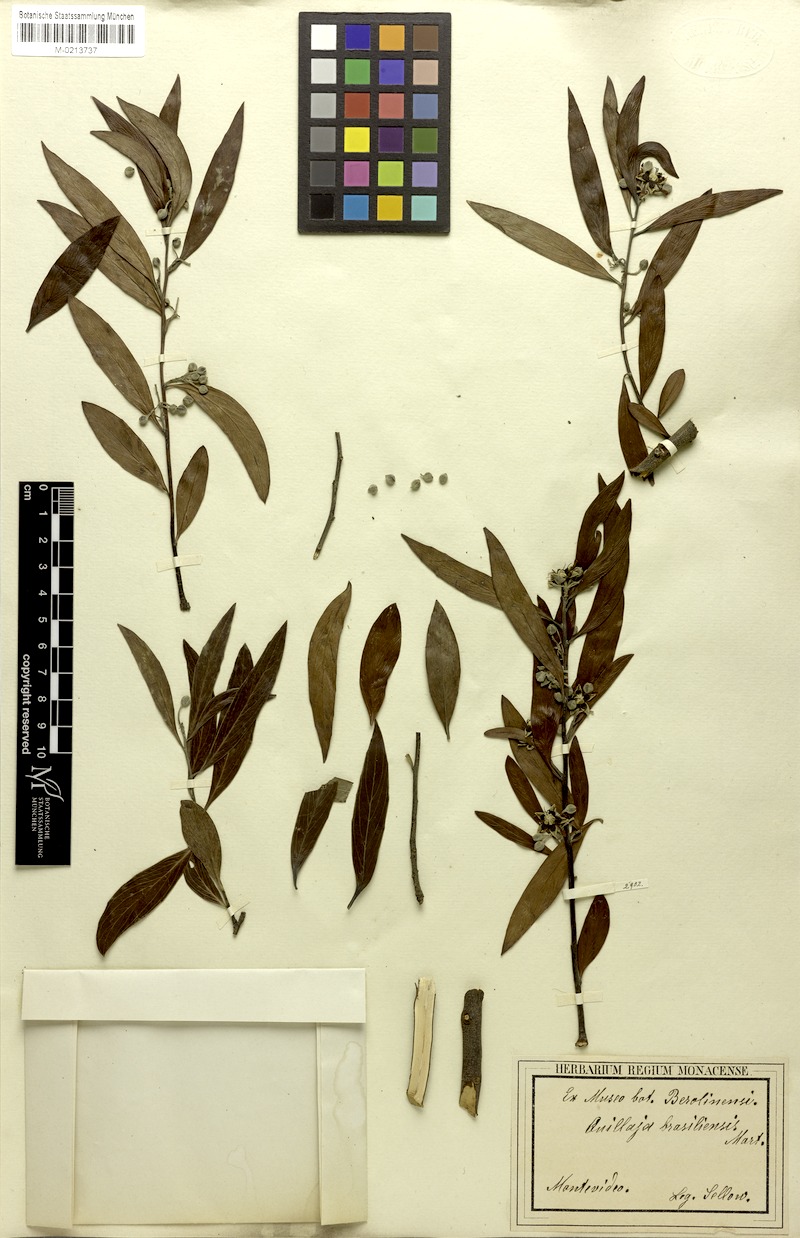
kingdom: Plantae
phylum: Tracheophyta
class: Magnoliopsida
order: Fabales
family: Quillajaceae
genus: Quillaja
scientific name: Quillaja brasiliensis
